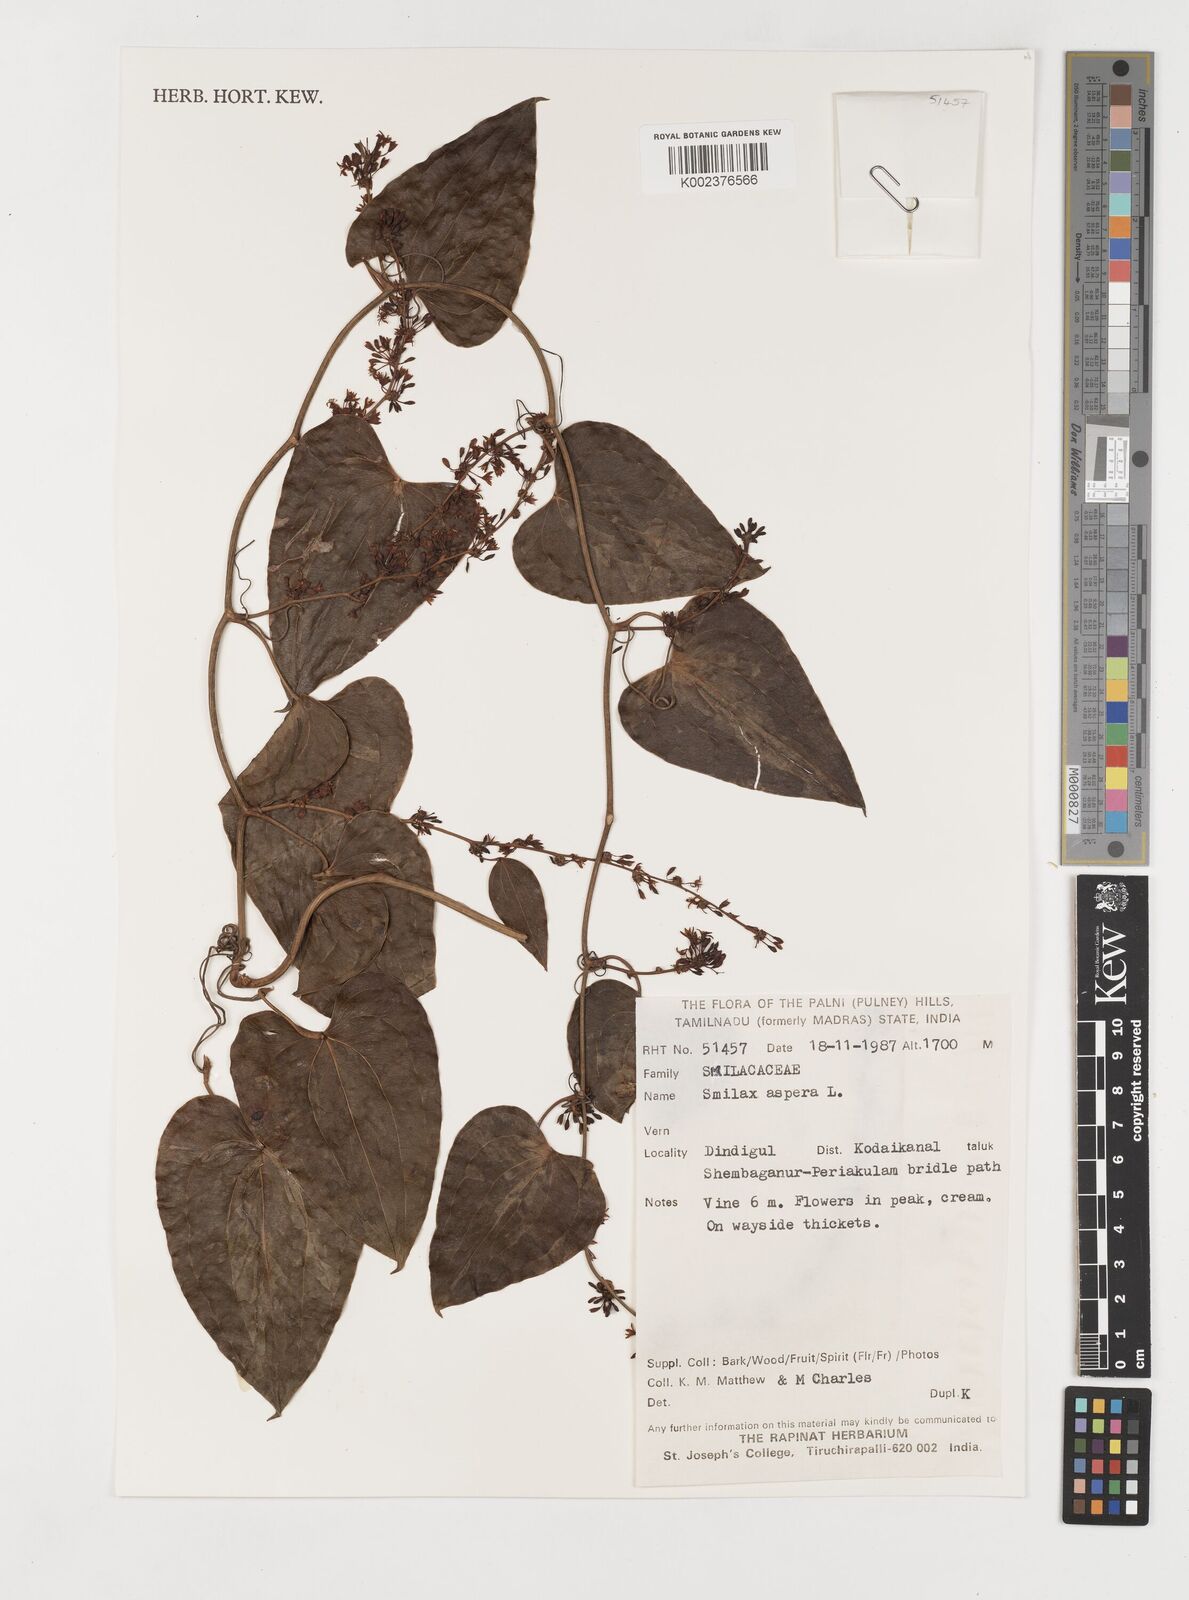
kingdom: Plantae
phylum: Tracheophyta
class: Liliopsida
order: Liliales
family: Smilacaceae
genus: Smilax
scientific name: Smilax aspera
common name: Common smilax
